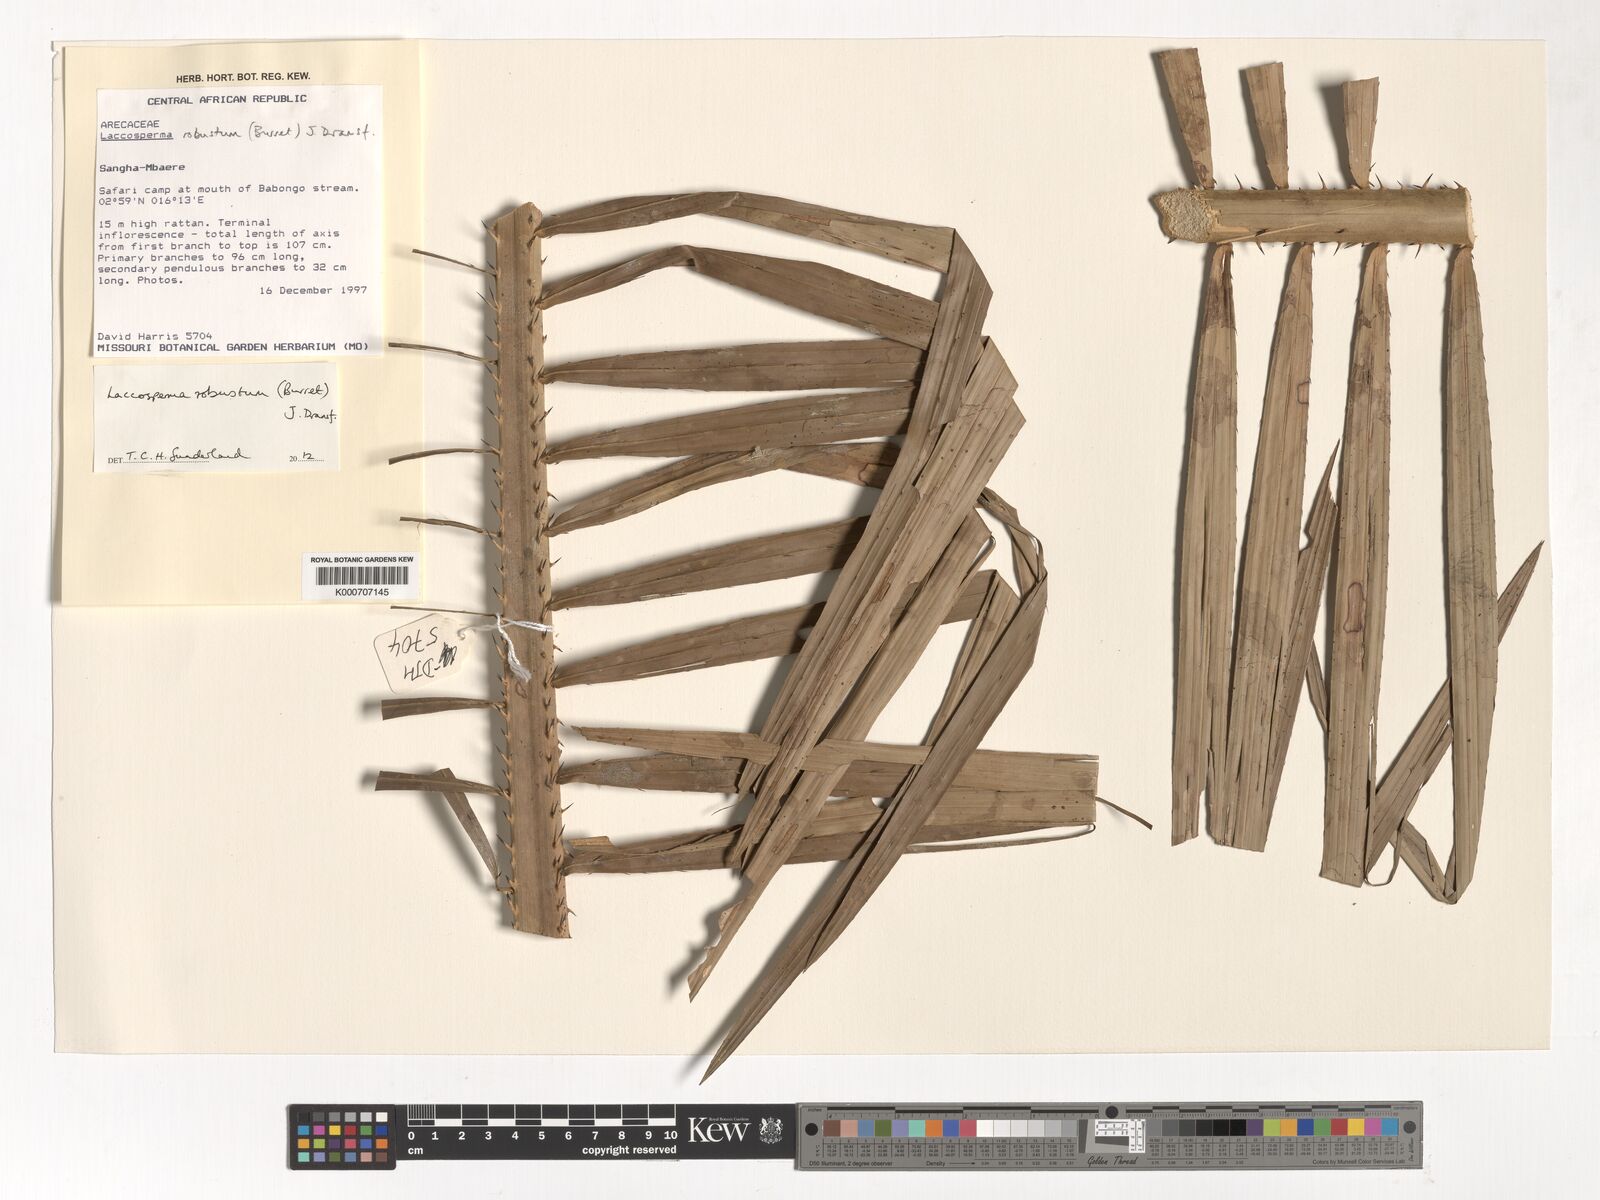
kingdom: Plantae
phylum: Tracheophyta
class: Liliopsida
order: Arecales
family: Arecaceae
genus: Laccosperma
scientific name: Laccosperma robustum
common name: Rattan
